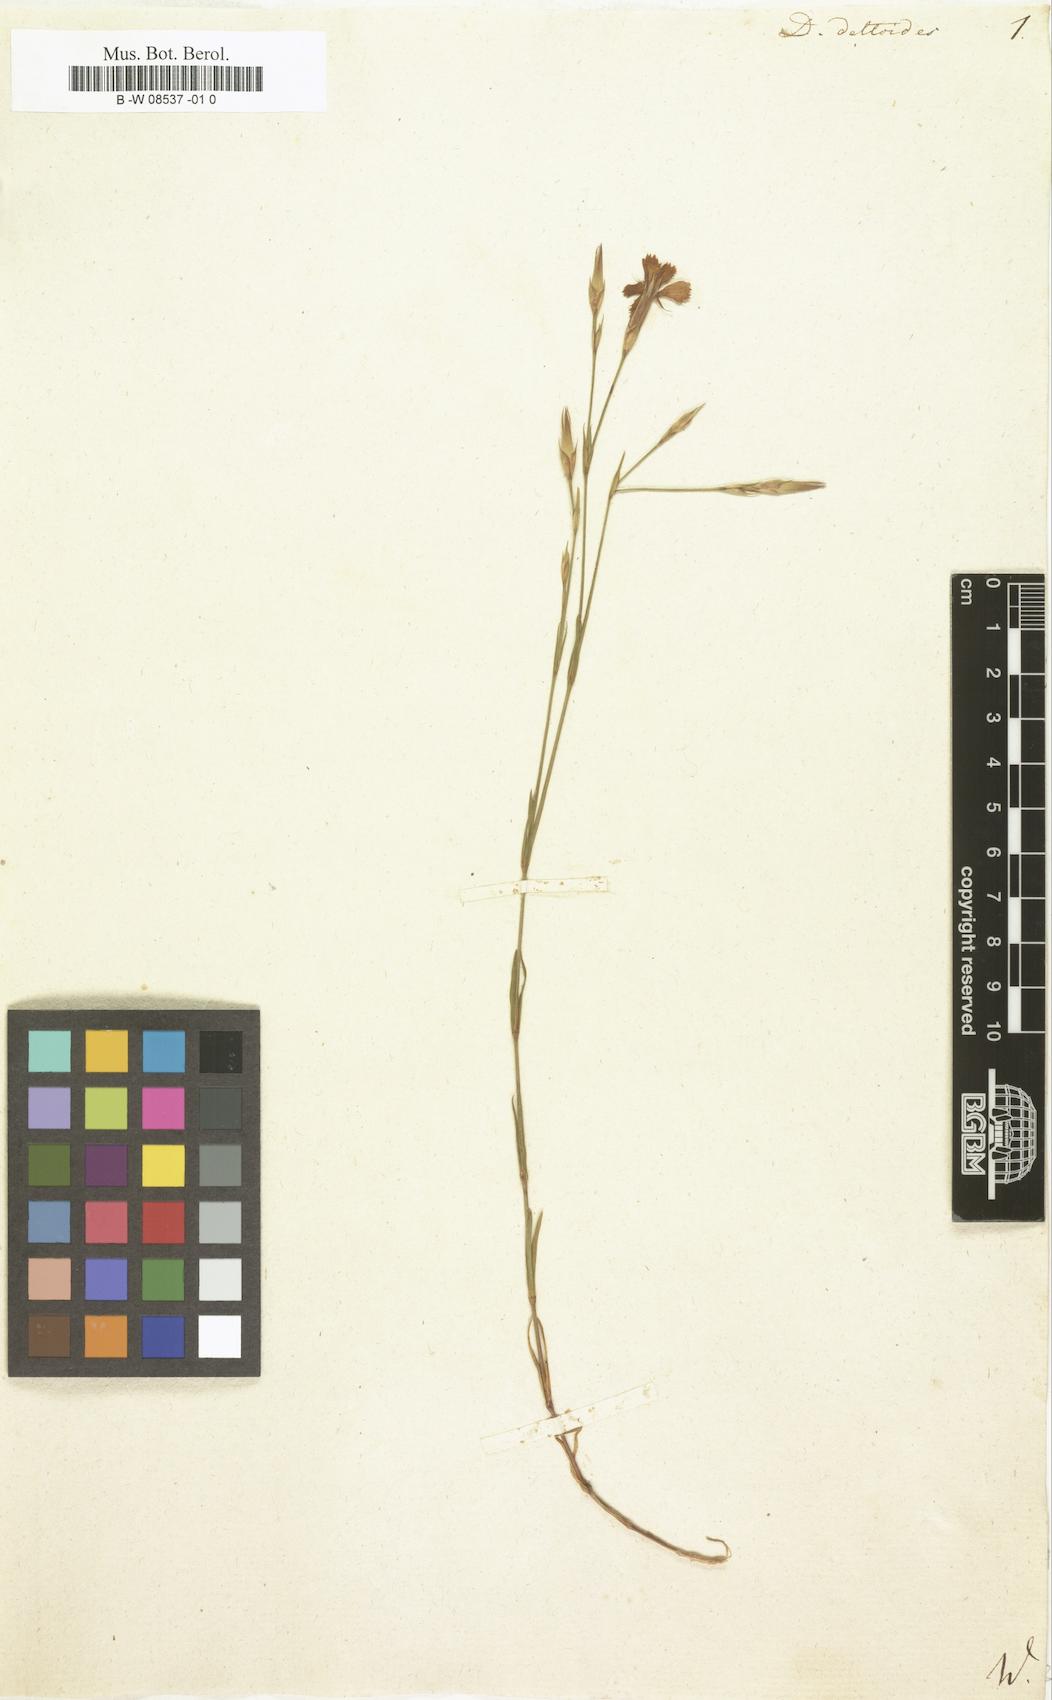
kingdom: Plantae
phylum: Tracheophyta
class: Magnoliopsida
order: Caryophyllales
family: Caryophyllaceae
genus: Dianthus
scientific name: Dianthus deltoides
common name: Maiden pink
